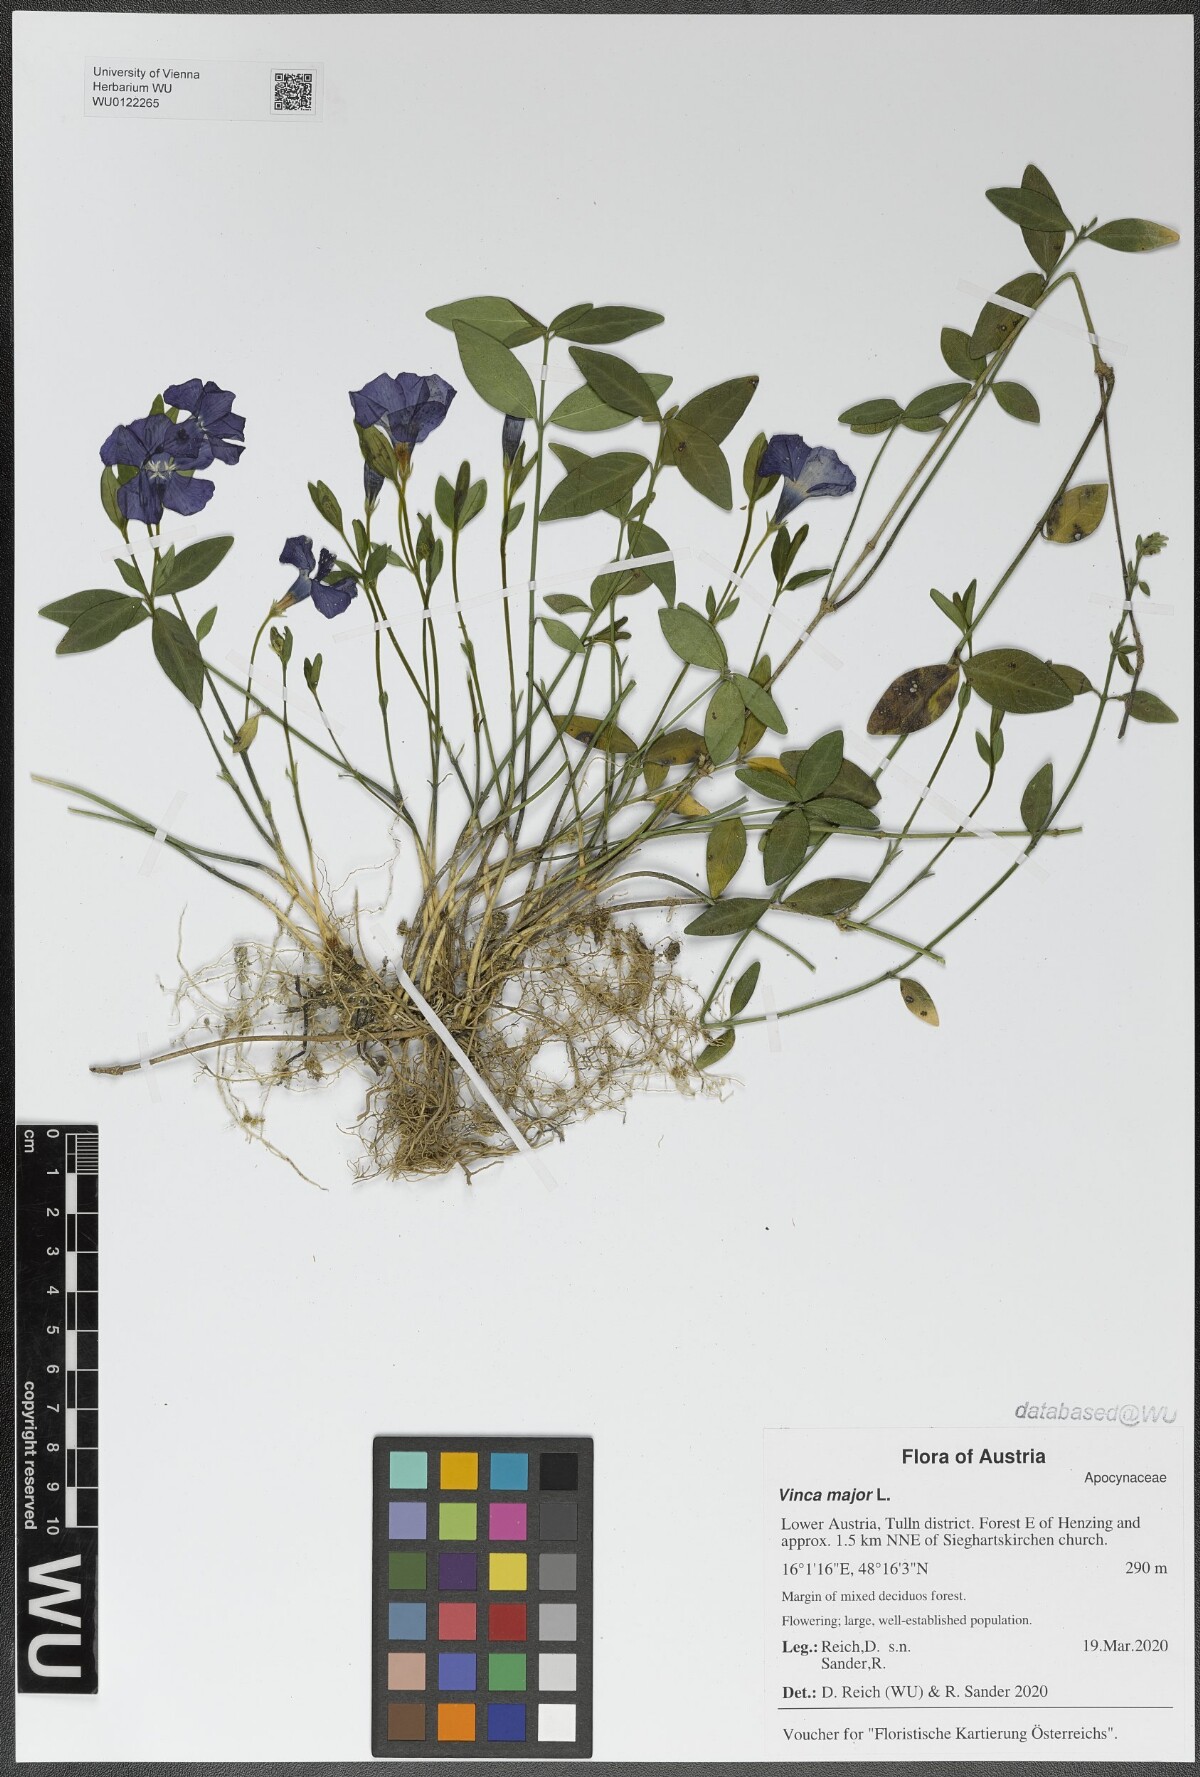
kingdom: Plantae
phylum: Tracheophyta
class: Magnoliopsida
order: Gentianales
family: Apocynaceae
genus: Vinca
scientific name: Vinca major
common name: Greater periwinkle
